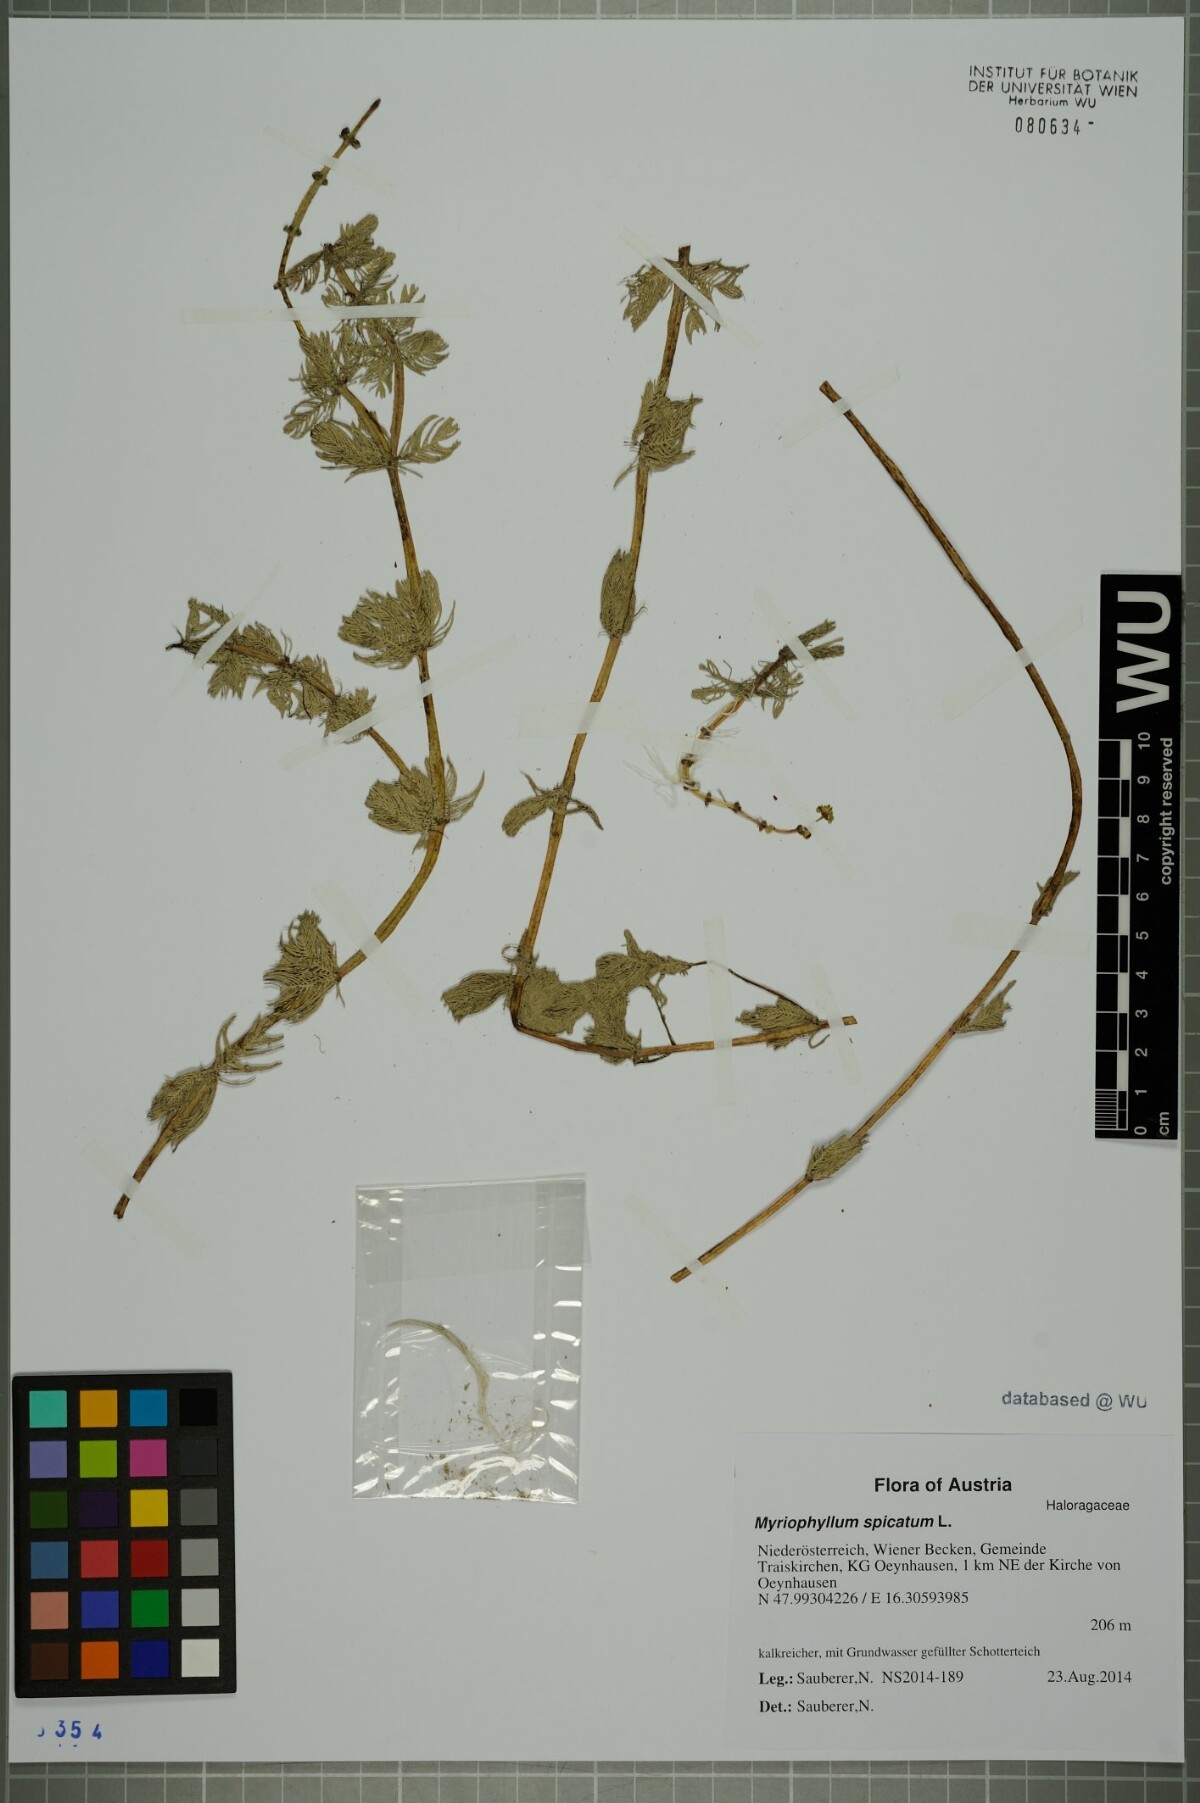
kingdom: Plantae
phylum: Tracheophyta
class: Magnoliopsida
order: Saxifragales
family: Haloragaceae
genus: Myriophyllum
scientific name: Myriophyllum spicatum
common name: Spiked water-milfoil
